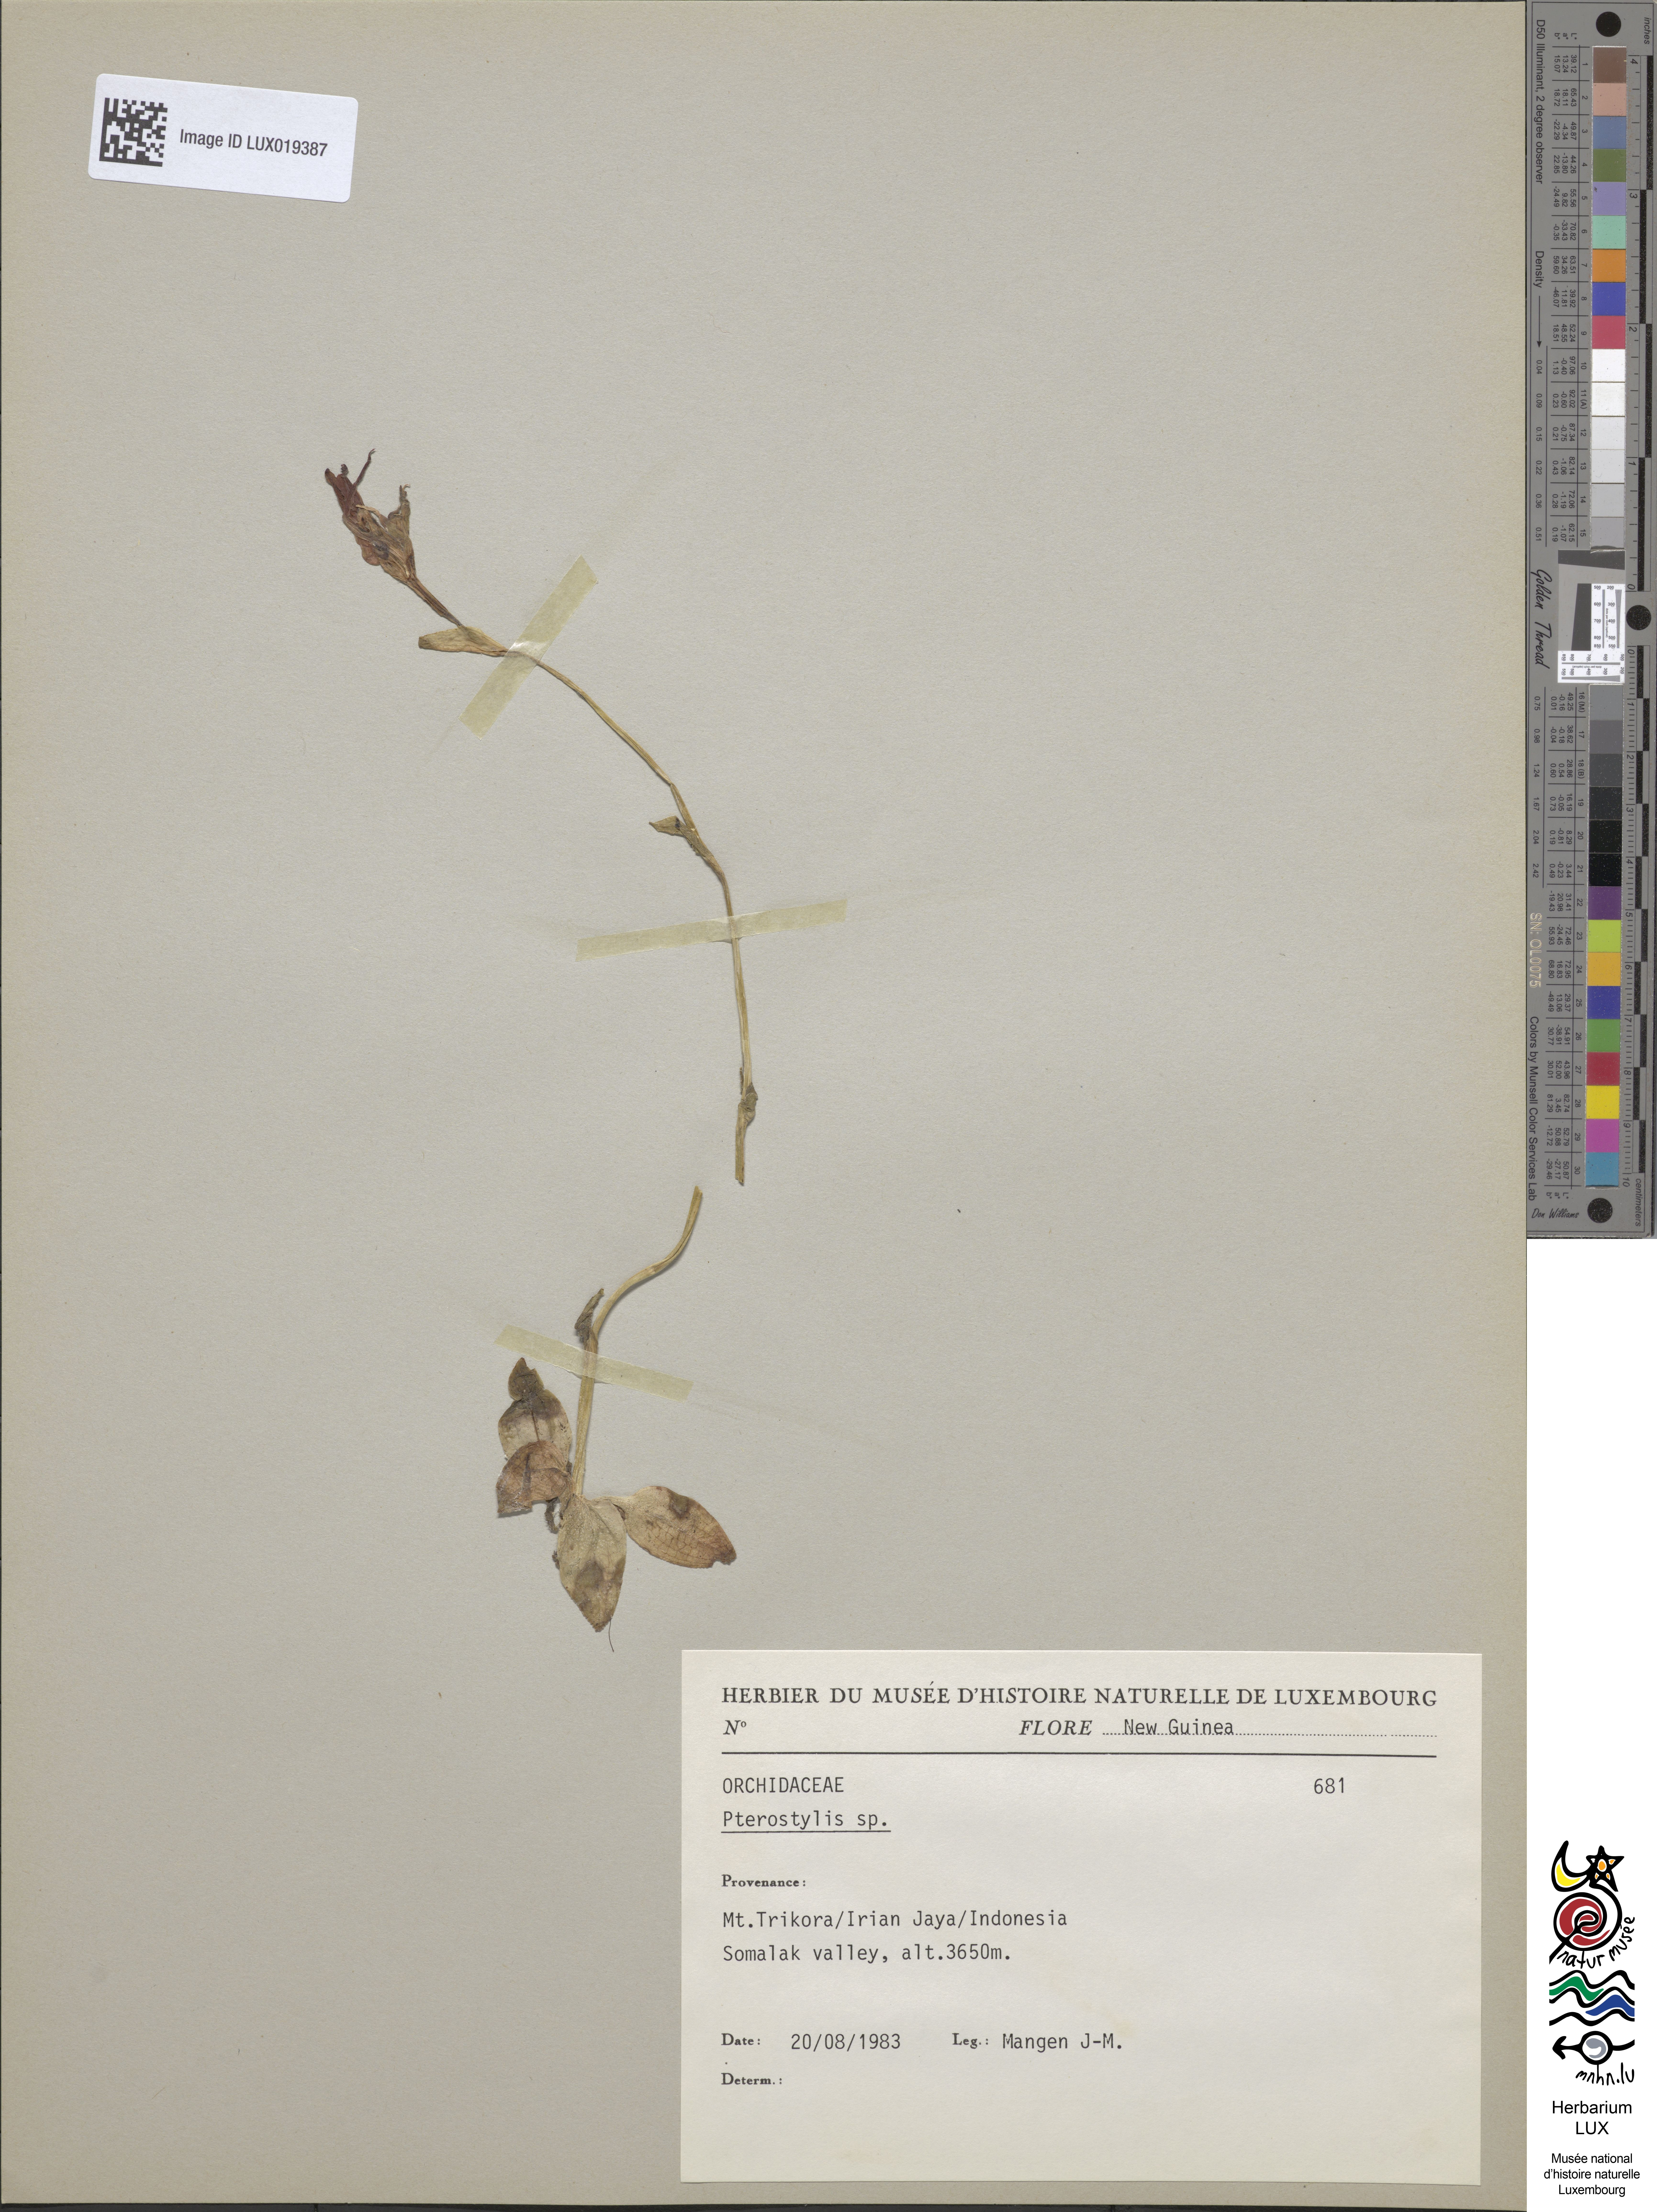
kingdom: Plantae
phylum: Tracheophyta
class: Liliopsida
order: Asparagales
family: Orchidaceae
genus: Pterostylis
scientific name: Pterostylis
